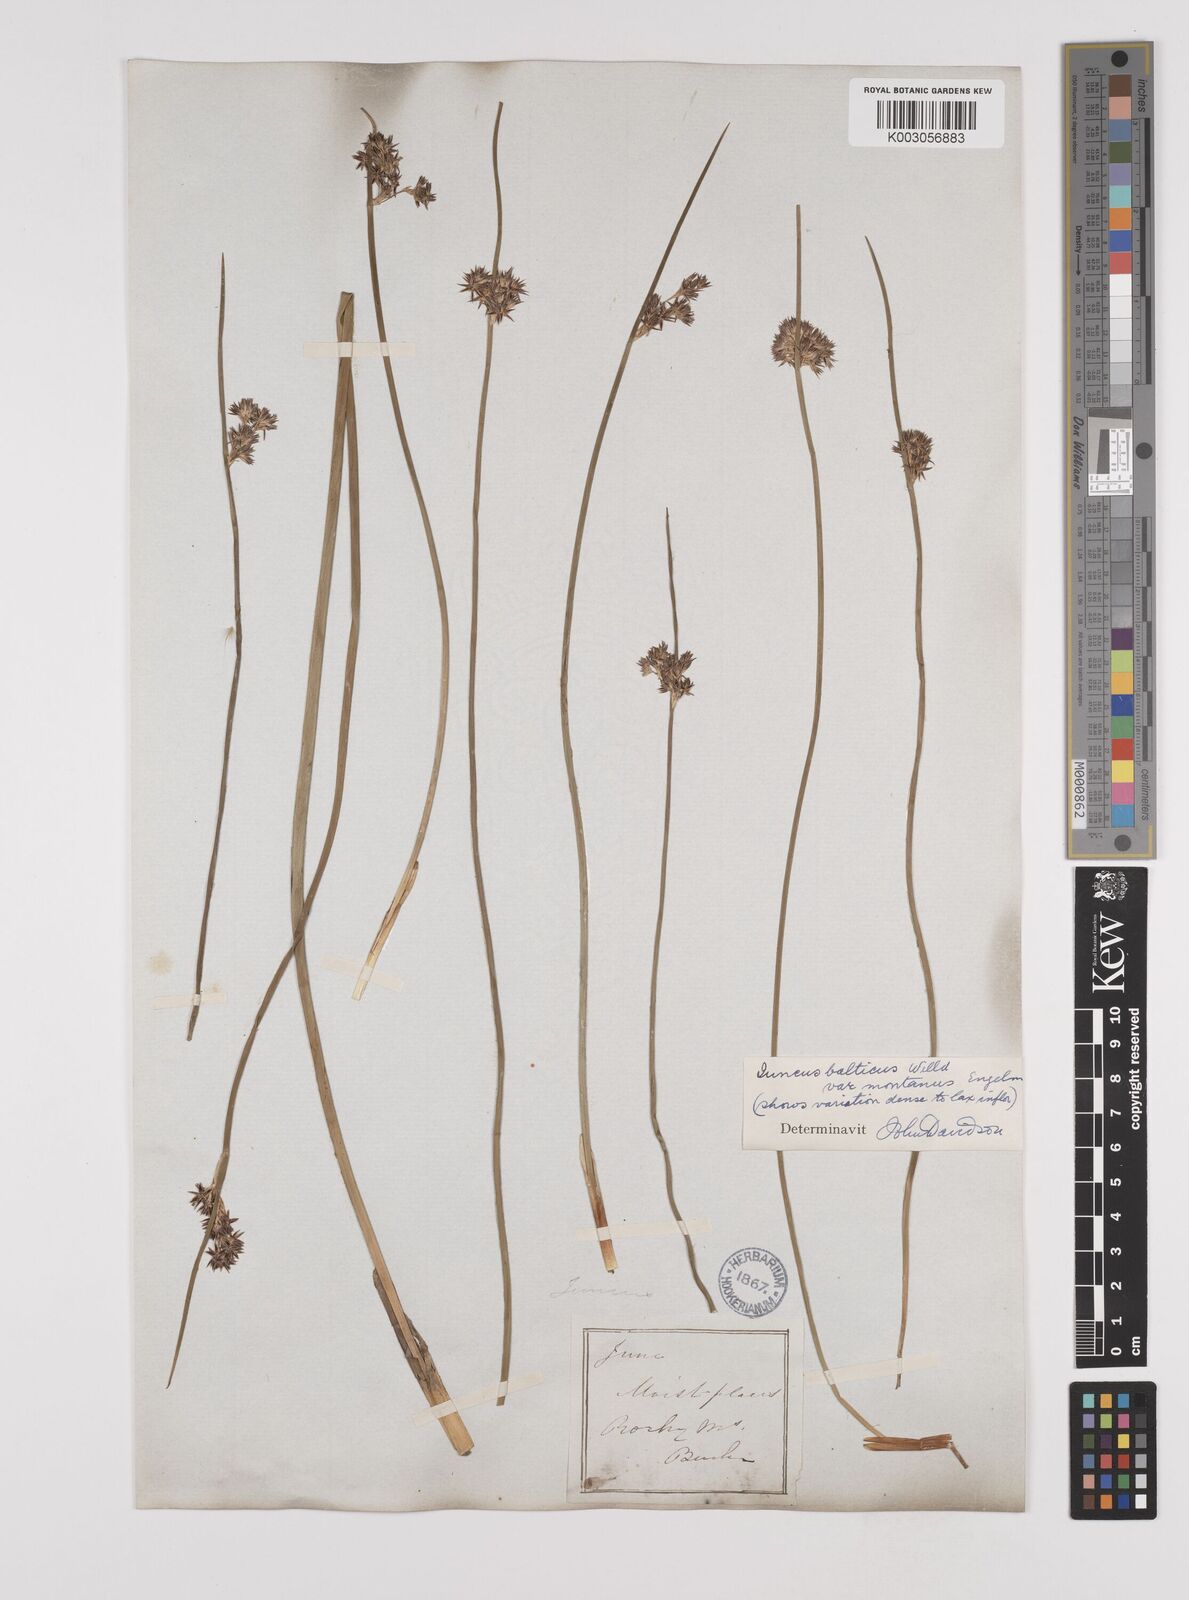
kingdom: Plantae
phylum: Tracheophyta
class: Liliopsida
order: Poales
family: Juncaceae
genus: Juncus
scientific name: Juncus
